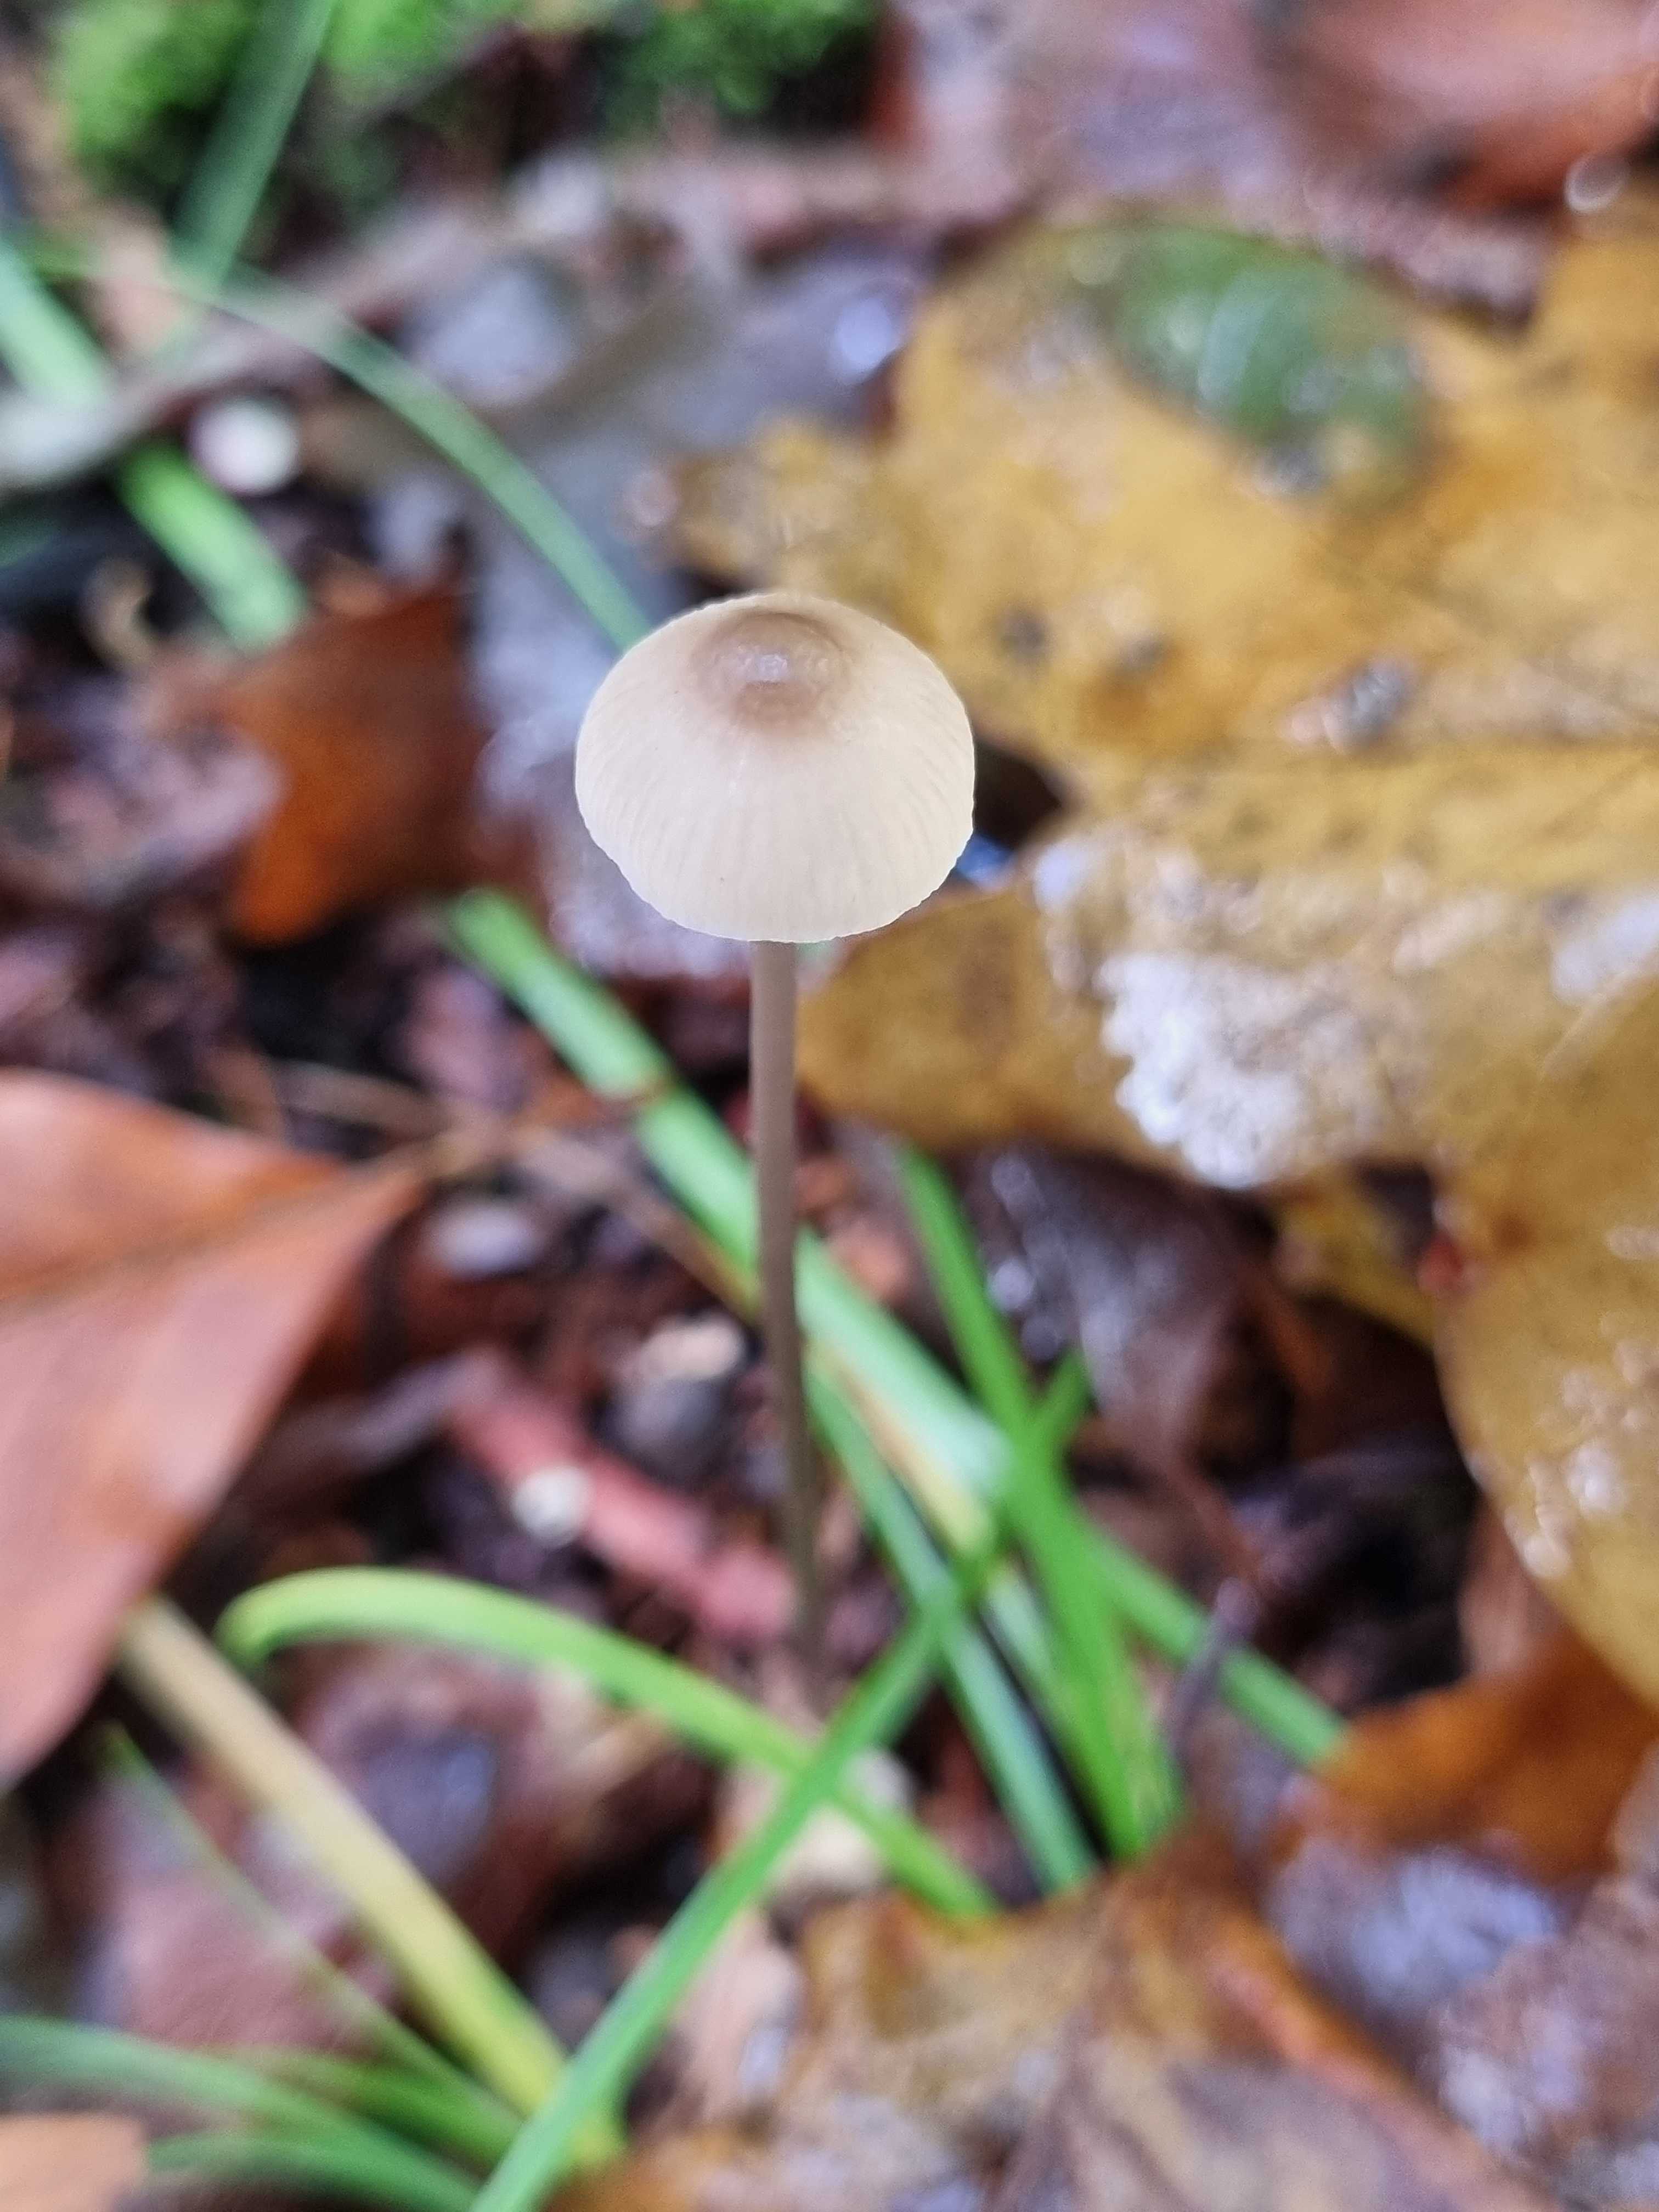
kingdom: Fungi
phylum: Basidiomycota
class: Agaricomycetes
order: Agaricales
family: Mycenaceae
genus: Mycena
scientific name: Mycena
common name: huesvamp
